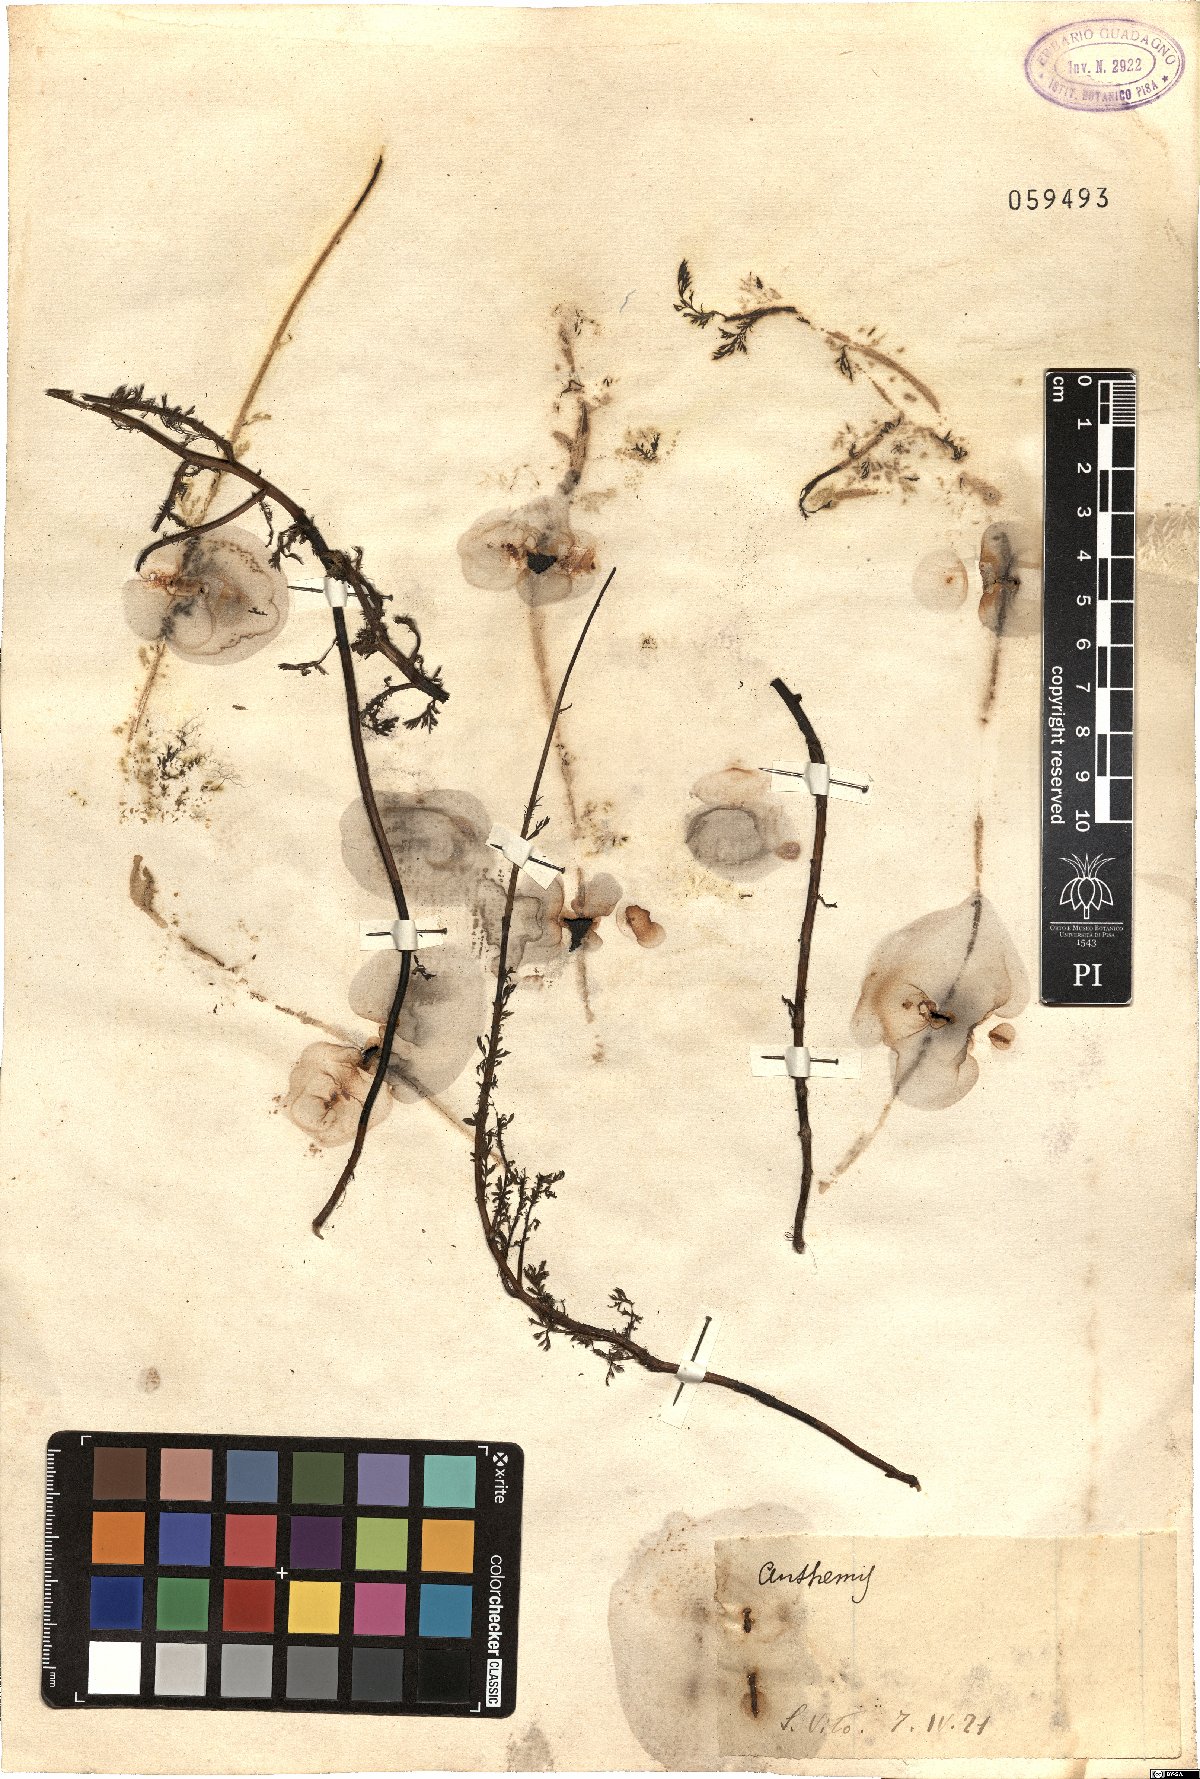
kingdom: Plantae
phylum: Tracheophyta
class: Magnoliopsida
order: Asterales
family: Asteraceae
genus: Anthemis
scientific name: Anthemis
